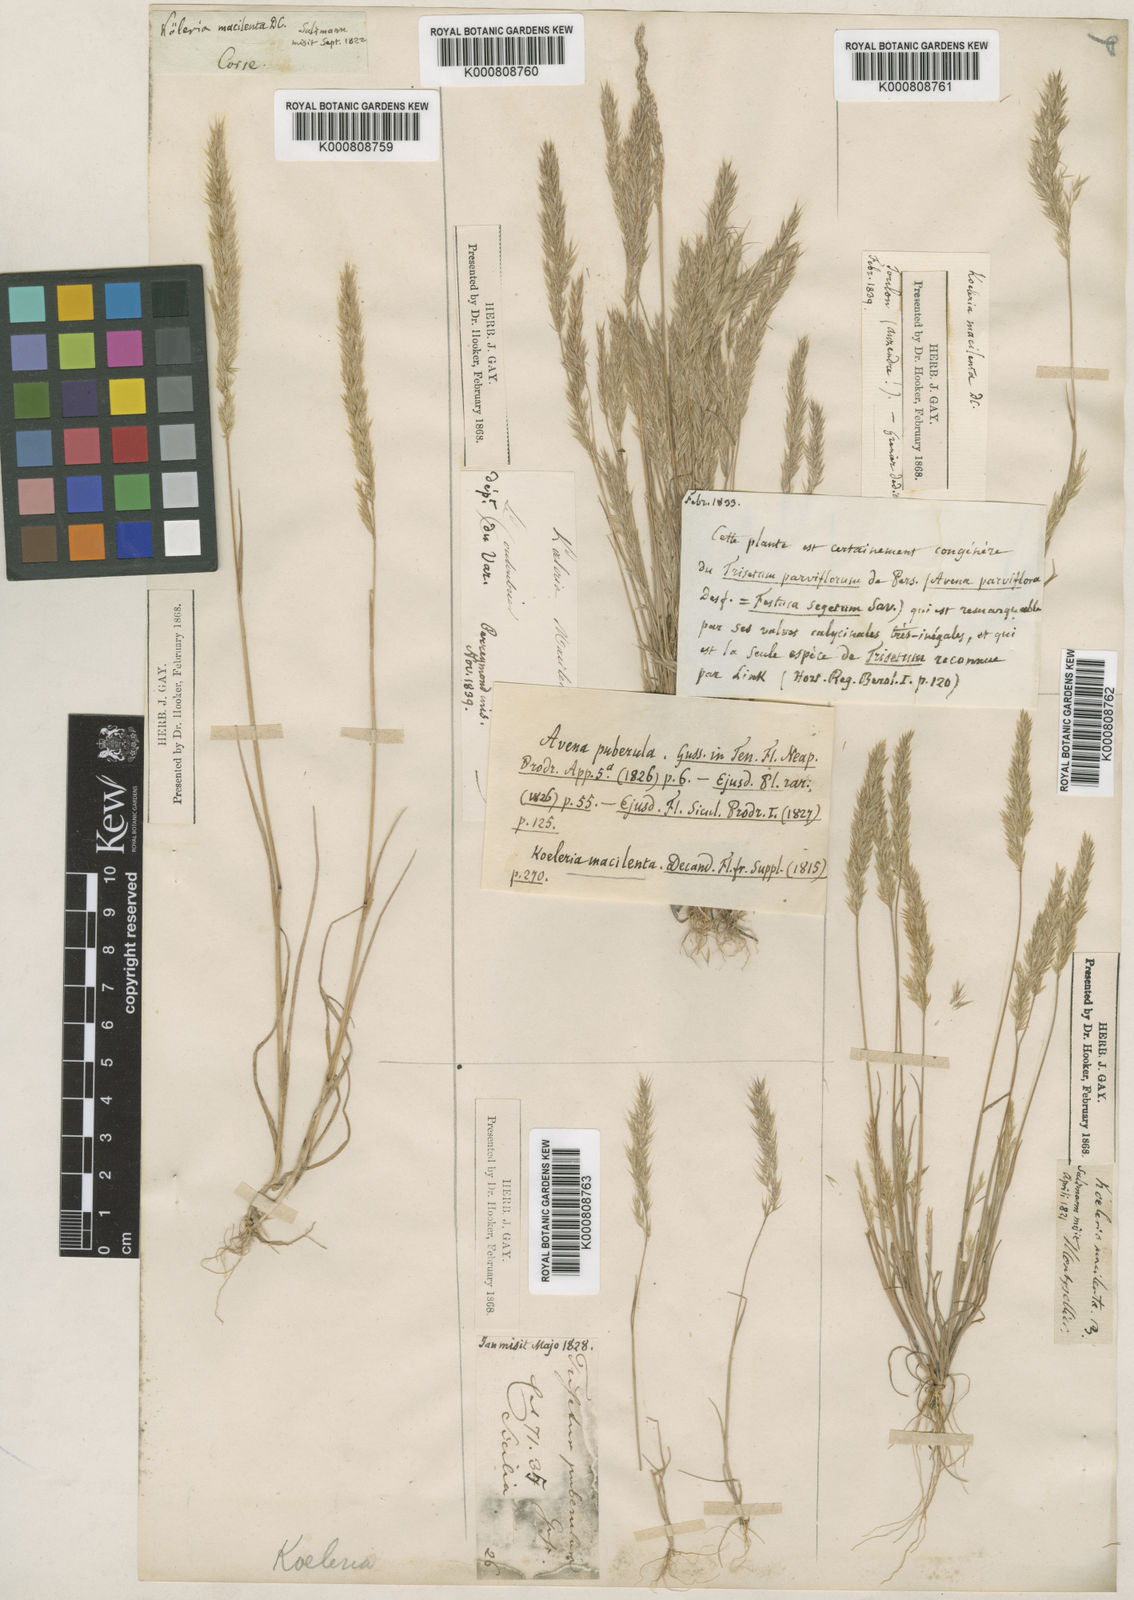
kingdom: Plantae
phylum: Tracheophyta
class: Liliopsida
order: Poales
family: Poaceae
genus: Avellinia
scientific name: Avellinia festucoides
